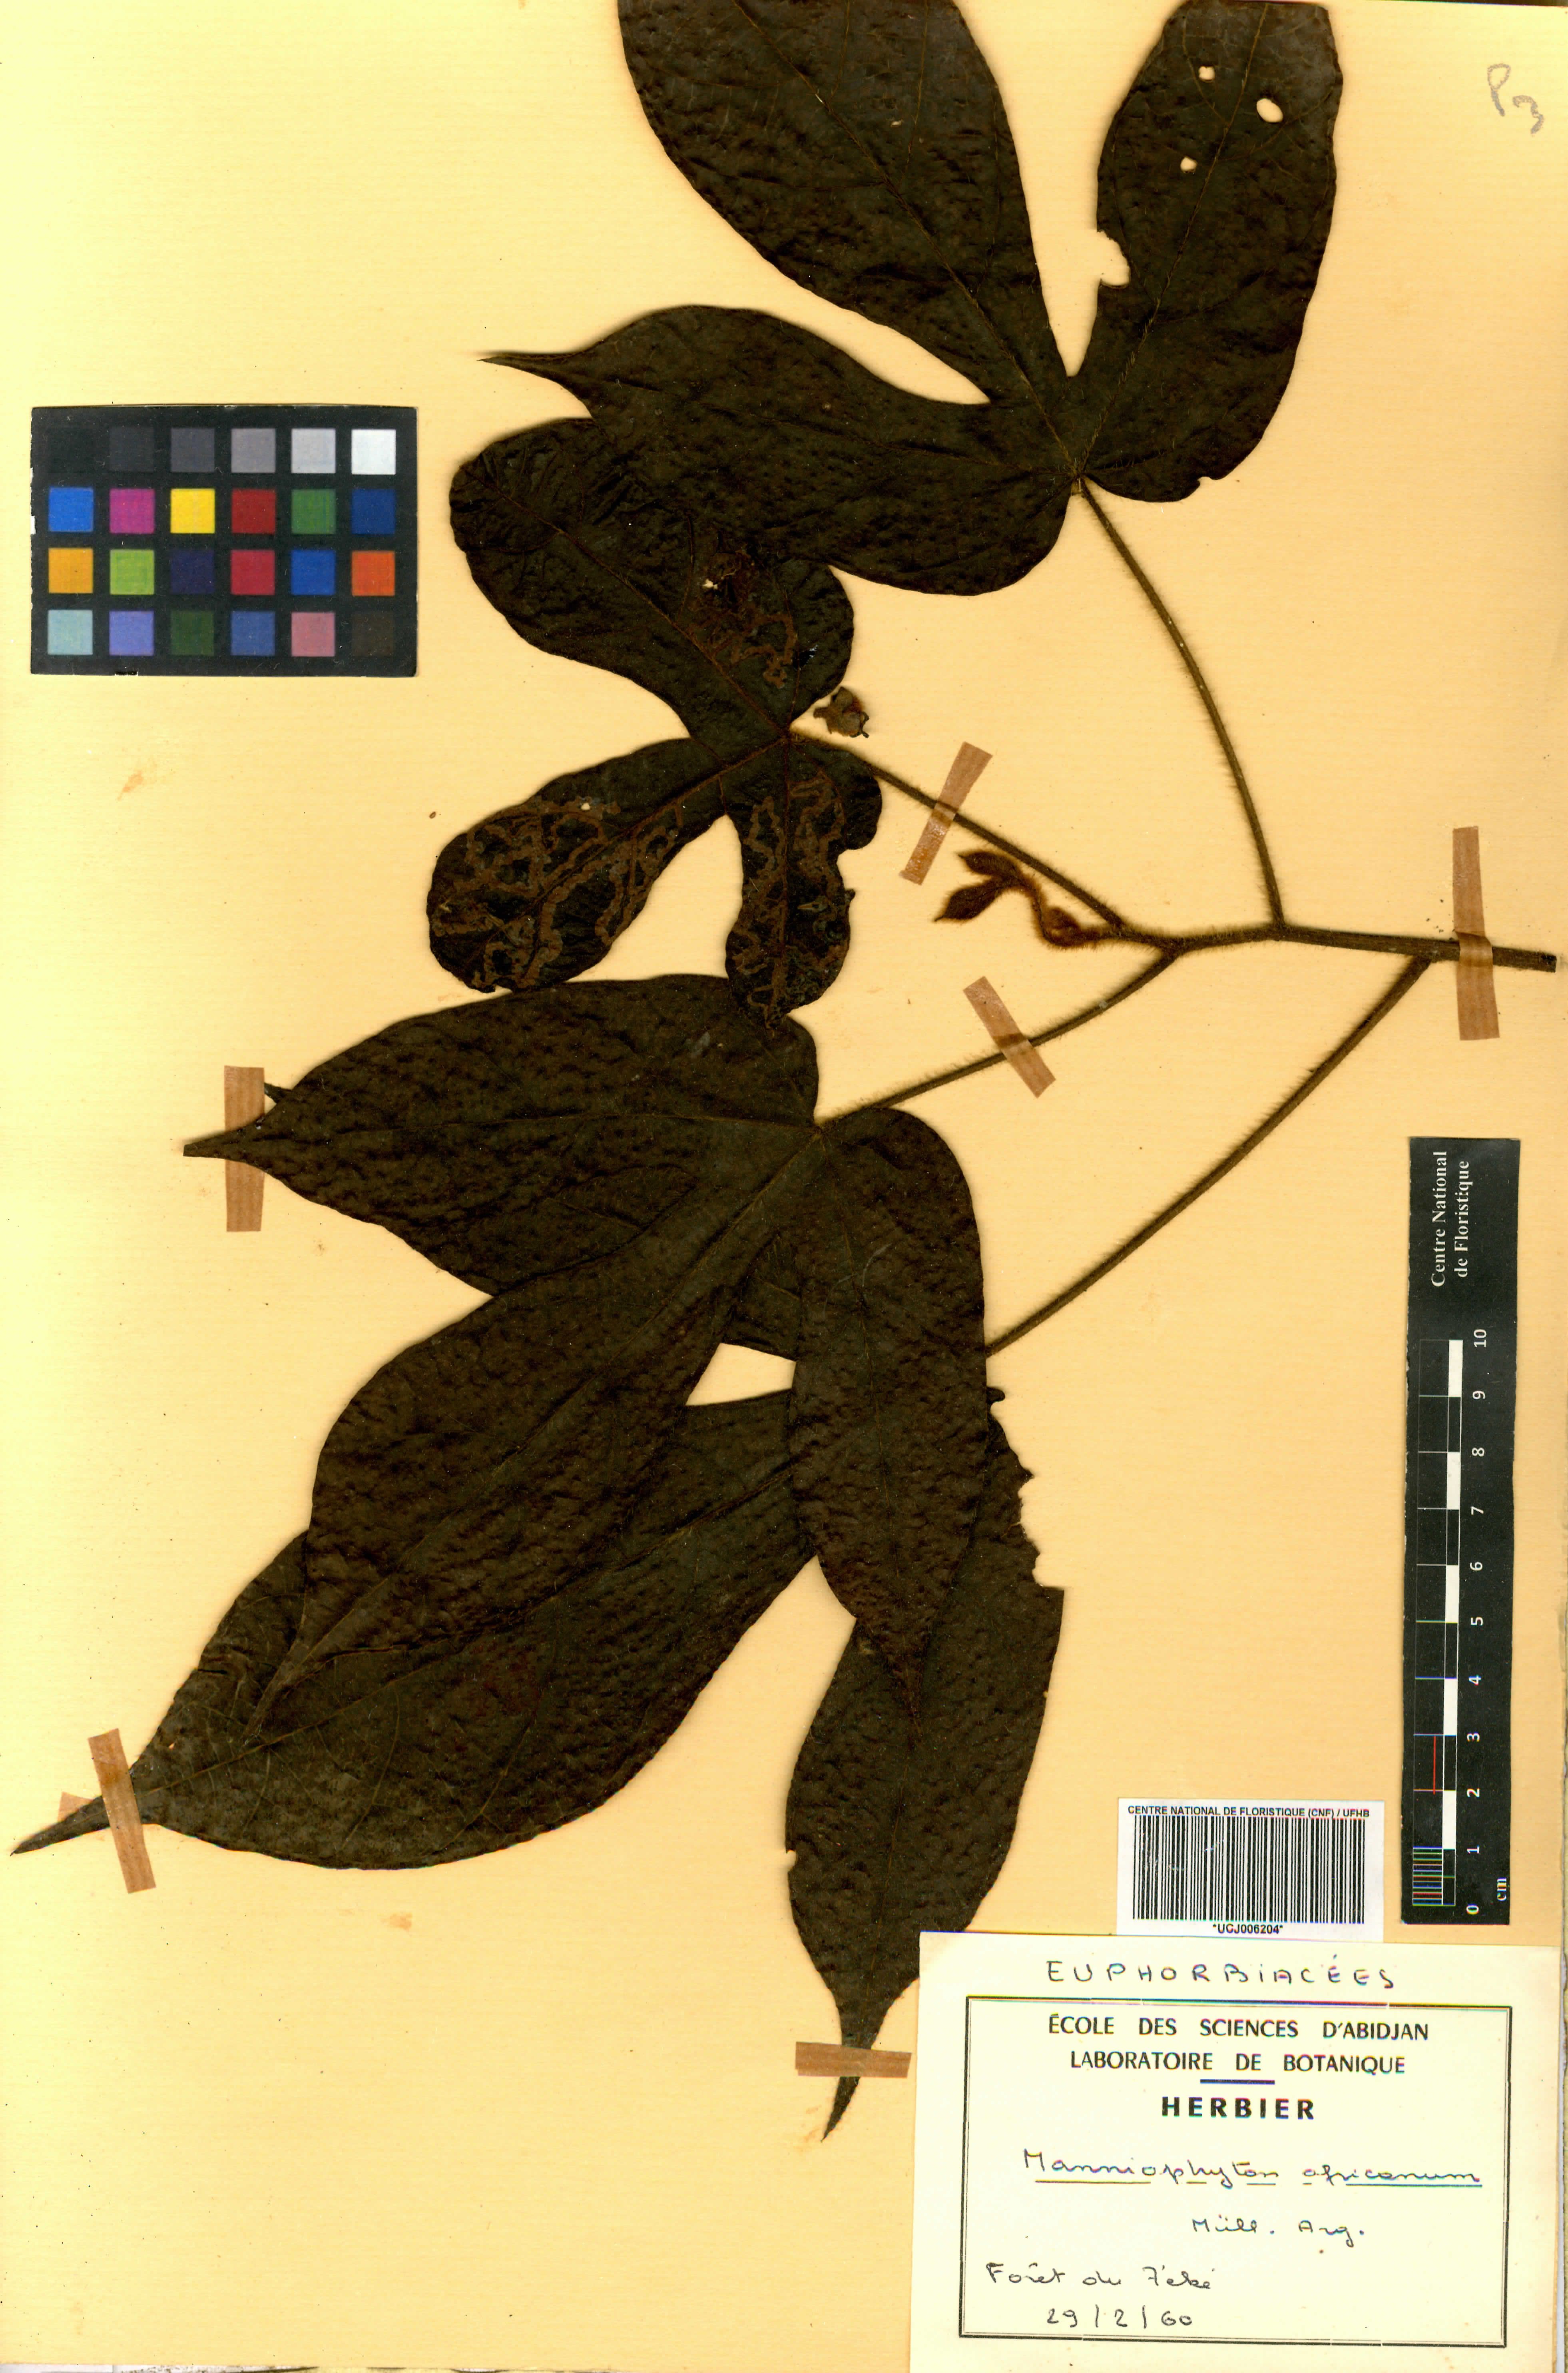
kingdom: Plantae
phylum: Tracheophyta
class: Magnoliopsida
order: Malpighiales
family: Euphorbiaceae
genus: Manniophyton
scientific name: Manniophyton fulvum
